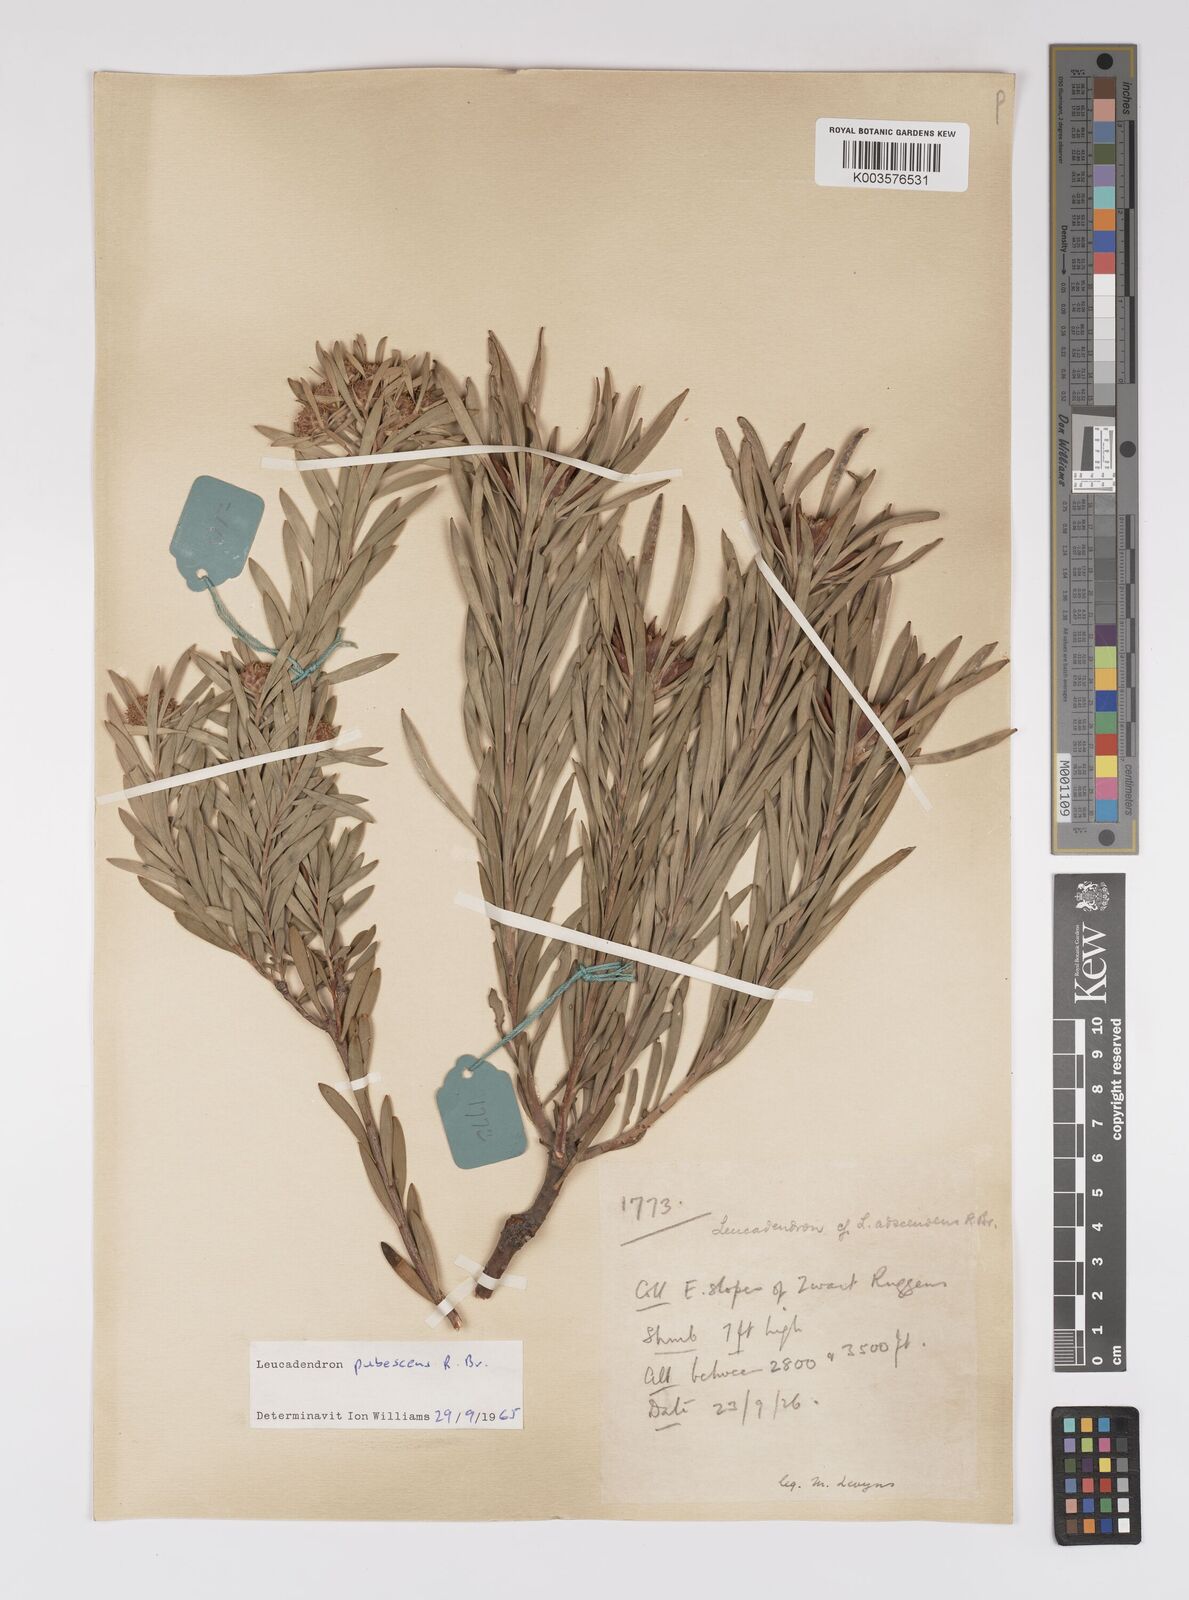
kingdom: Plantae
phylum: Tracheophyta
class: Magnoliopsida
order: Proteales
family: Proteaceae
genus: Leucadendron
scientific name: Leucadendron pubescens
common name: Grey conebush
